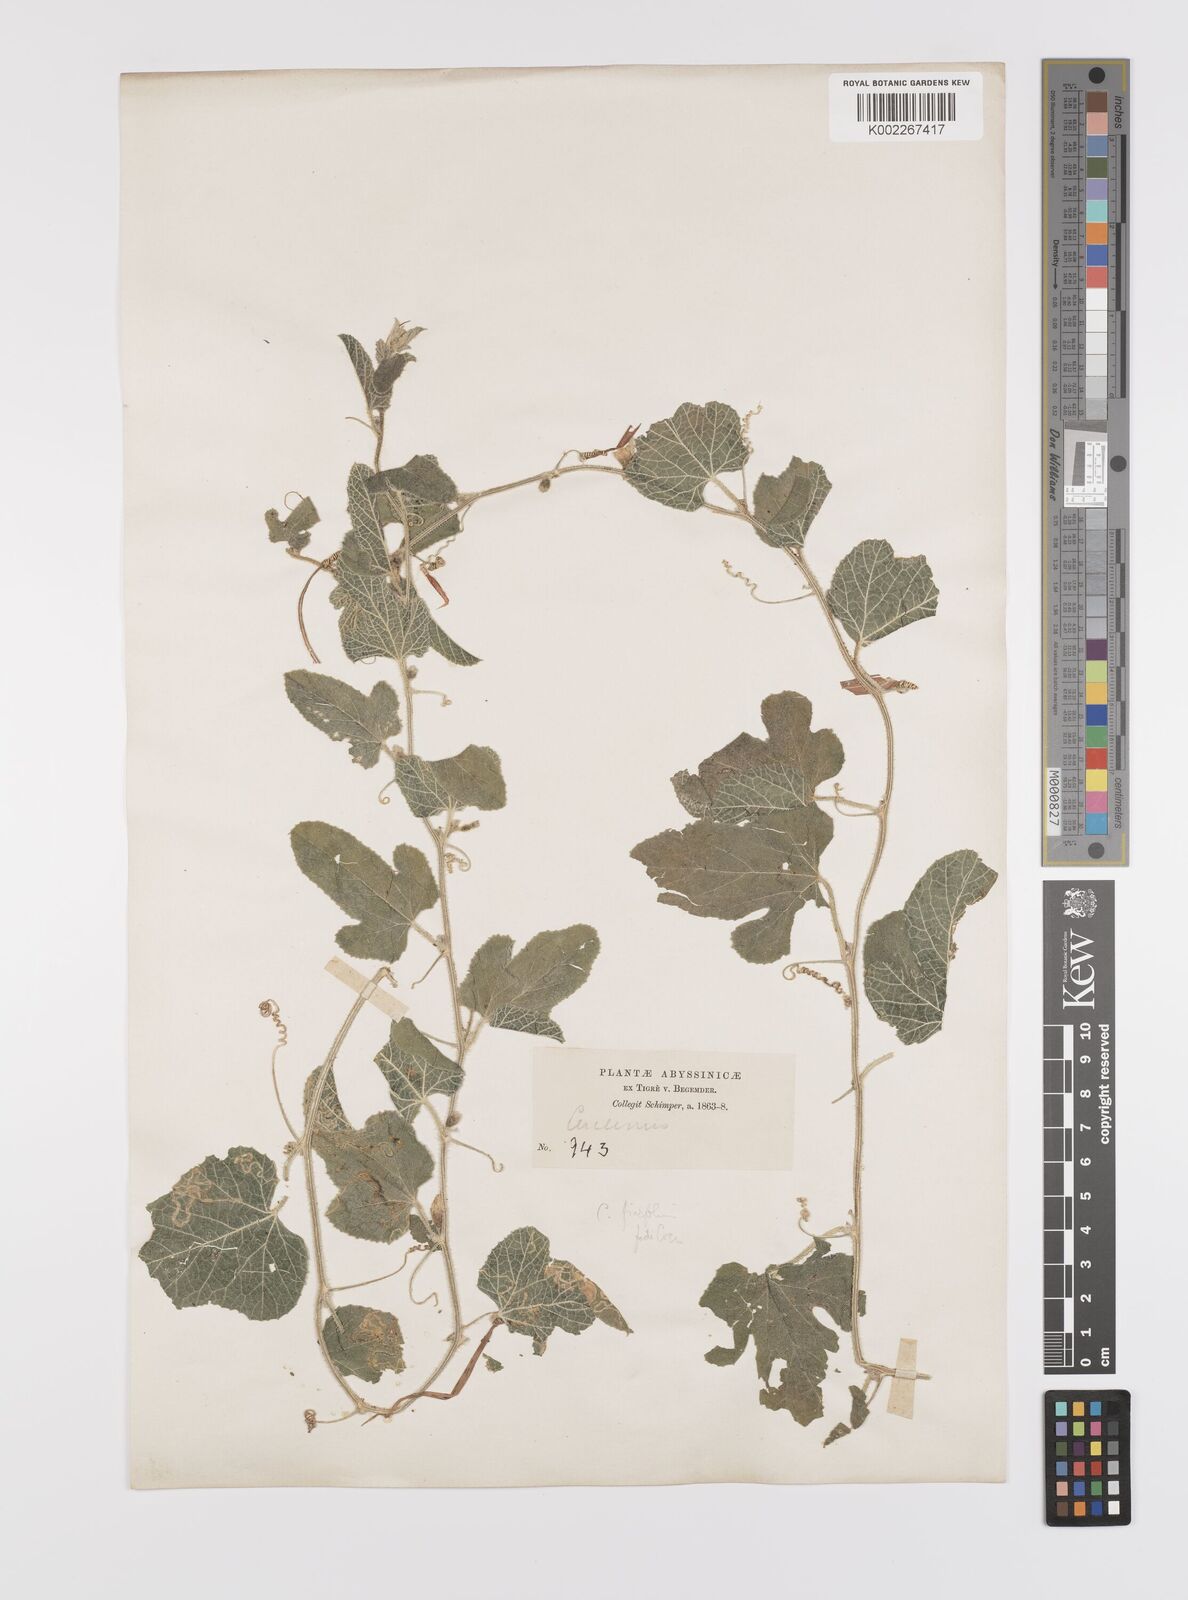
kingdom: Plantae
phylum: Tracheophyta
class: Magnoliopsida
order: Cucurbitales
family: Cucurbitaceae
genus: Cucumis
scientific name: Cucumis ficifolius
